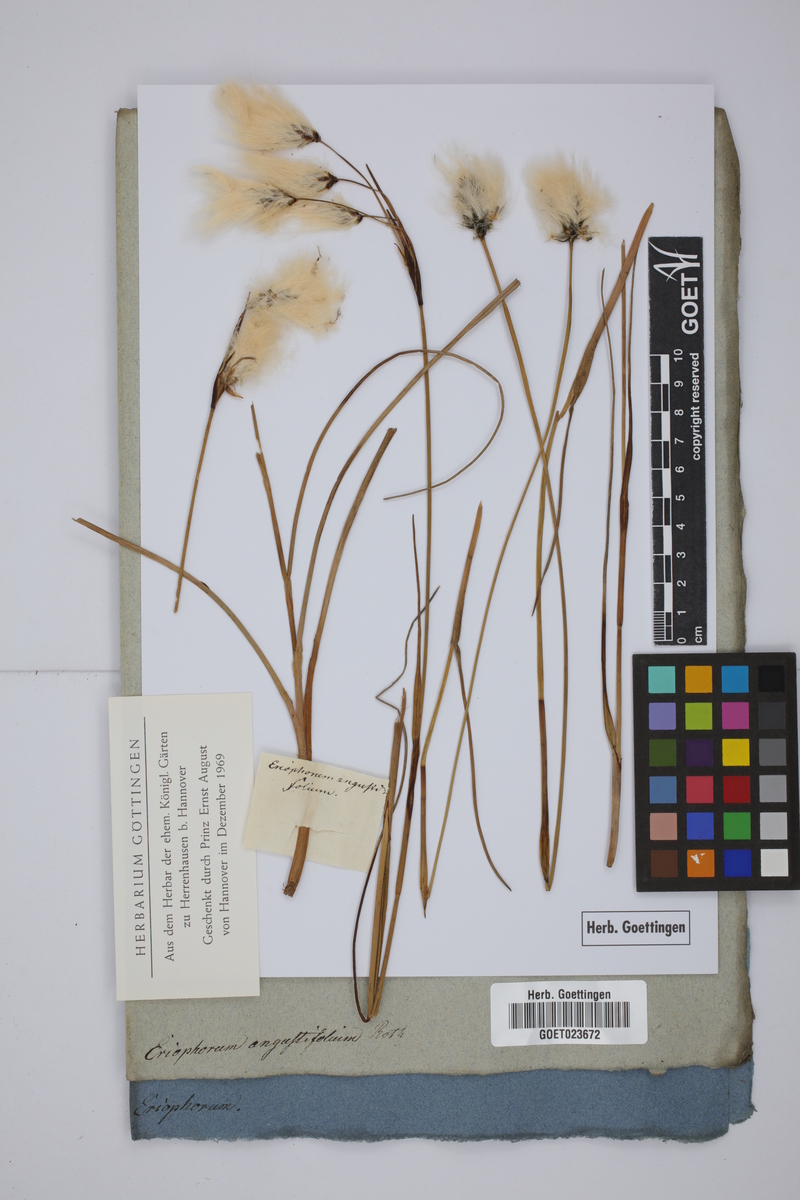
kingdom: Plantae
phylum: Tracheophyta
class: Liliopsida
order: Poales
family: Cyperaceae
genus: Eriophorum
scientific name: Eriophorum angustifolium
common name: Common cottongrass
